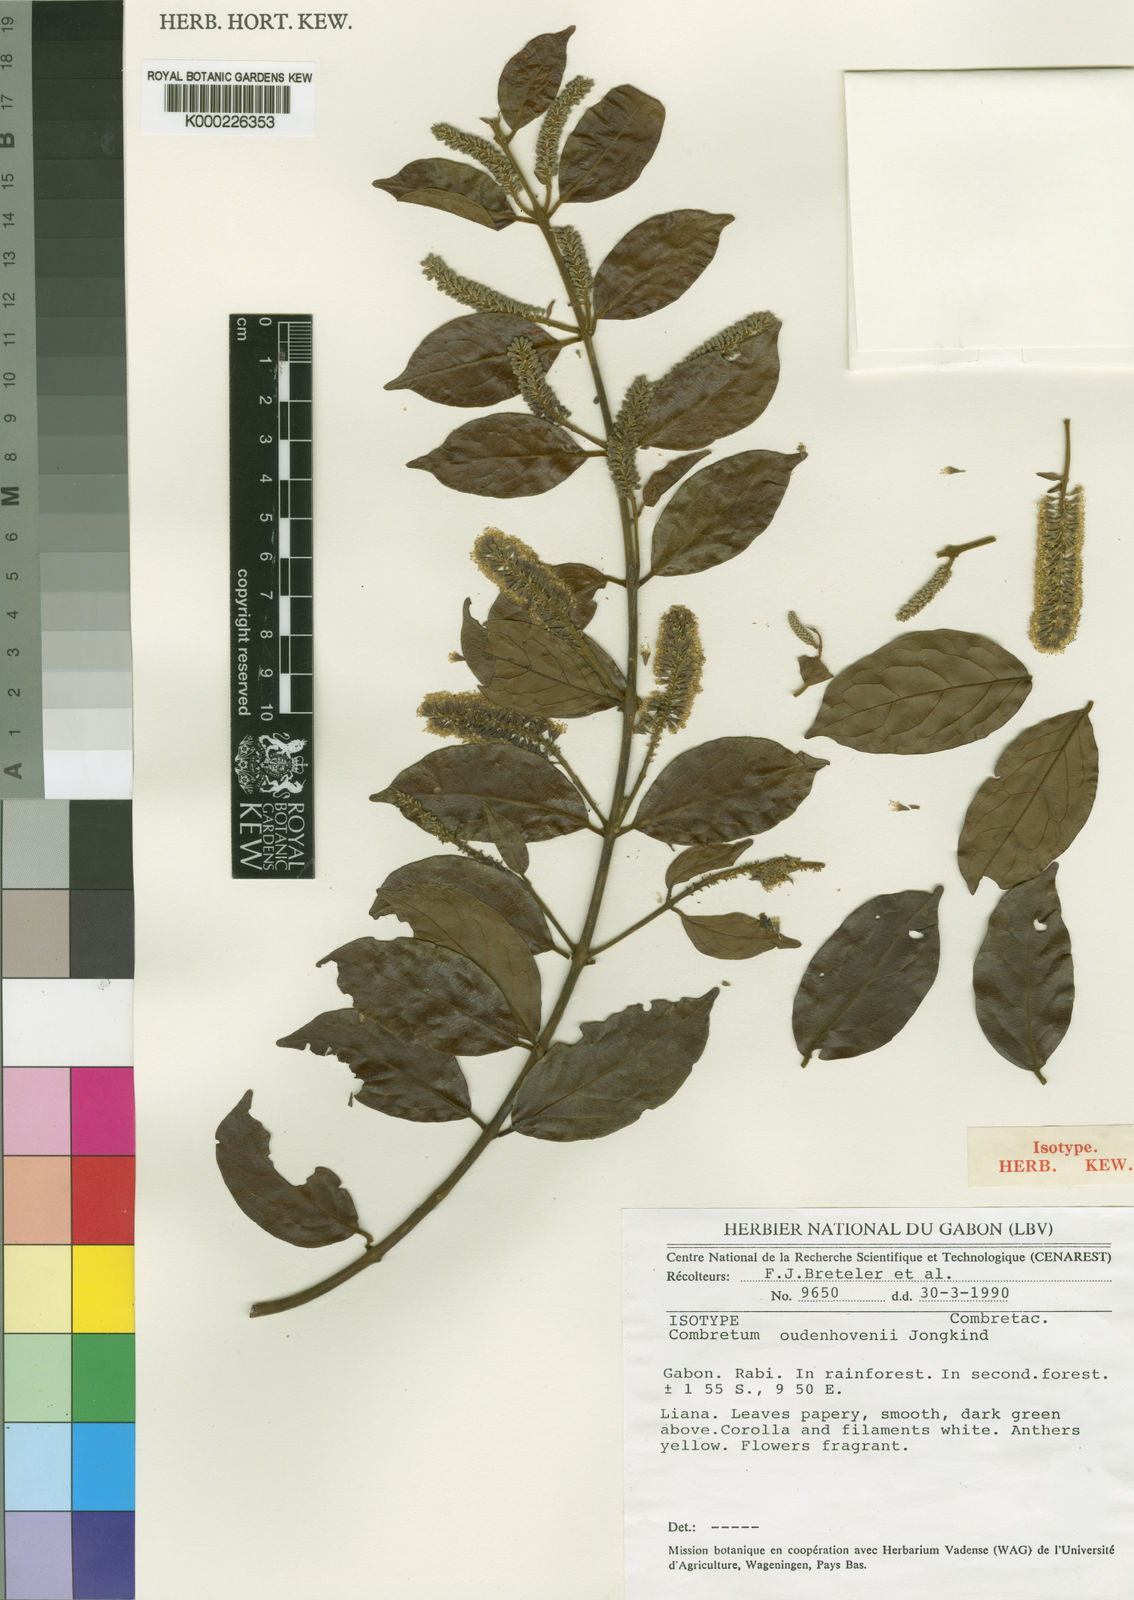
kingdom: Plantae
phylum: Tracheophyta
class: Magnoliopsida
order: Myrtales
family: Combretaceae
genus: Combretum
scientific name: Combretum oudenhovenii
